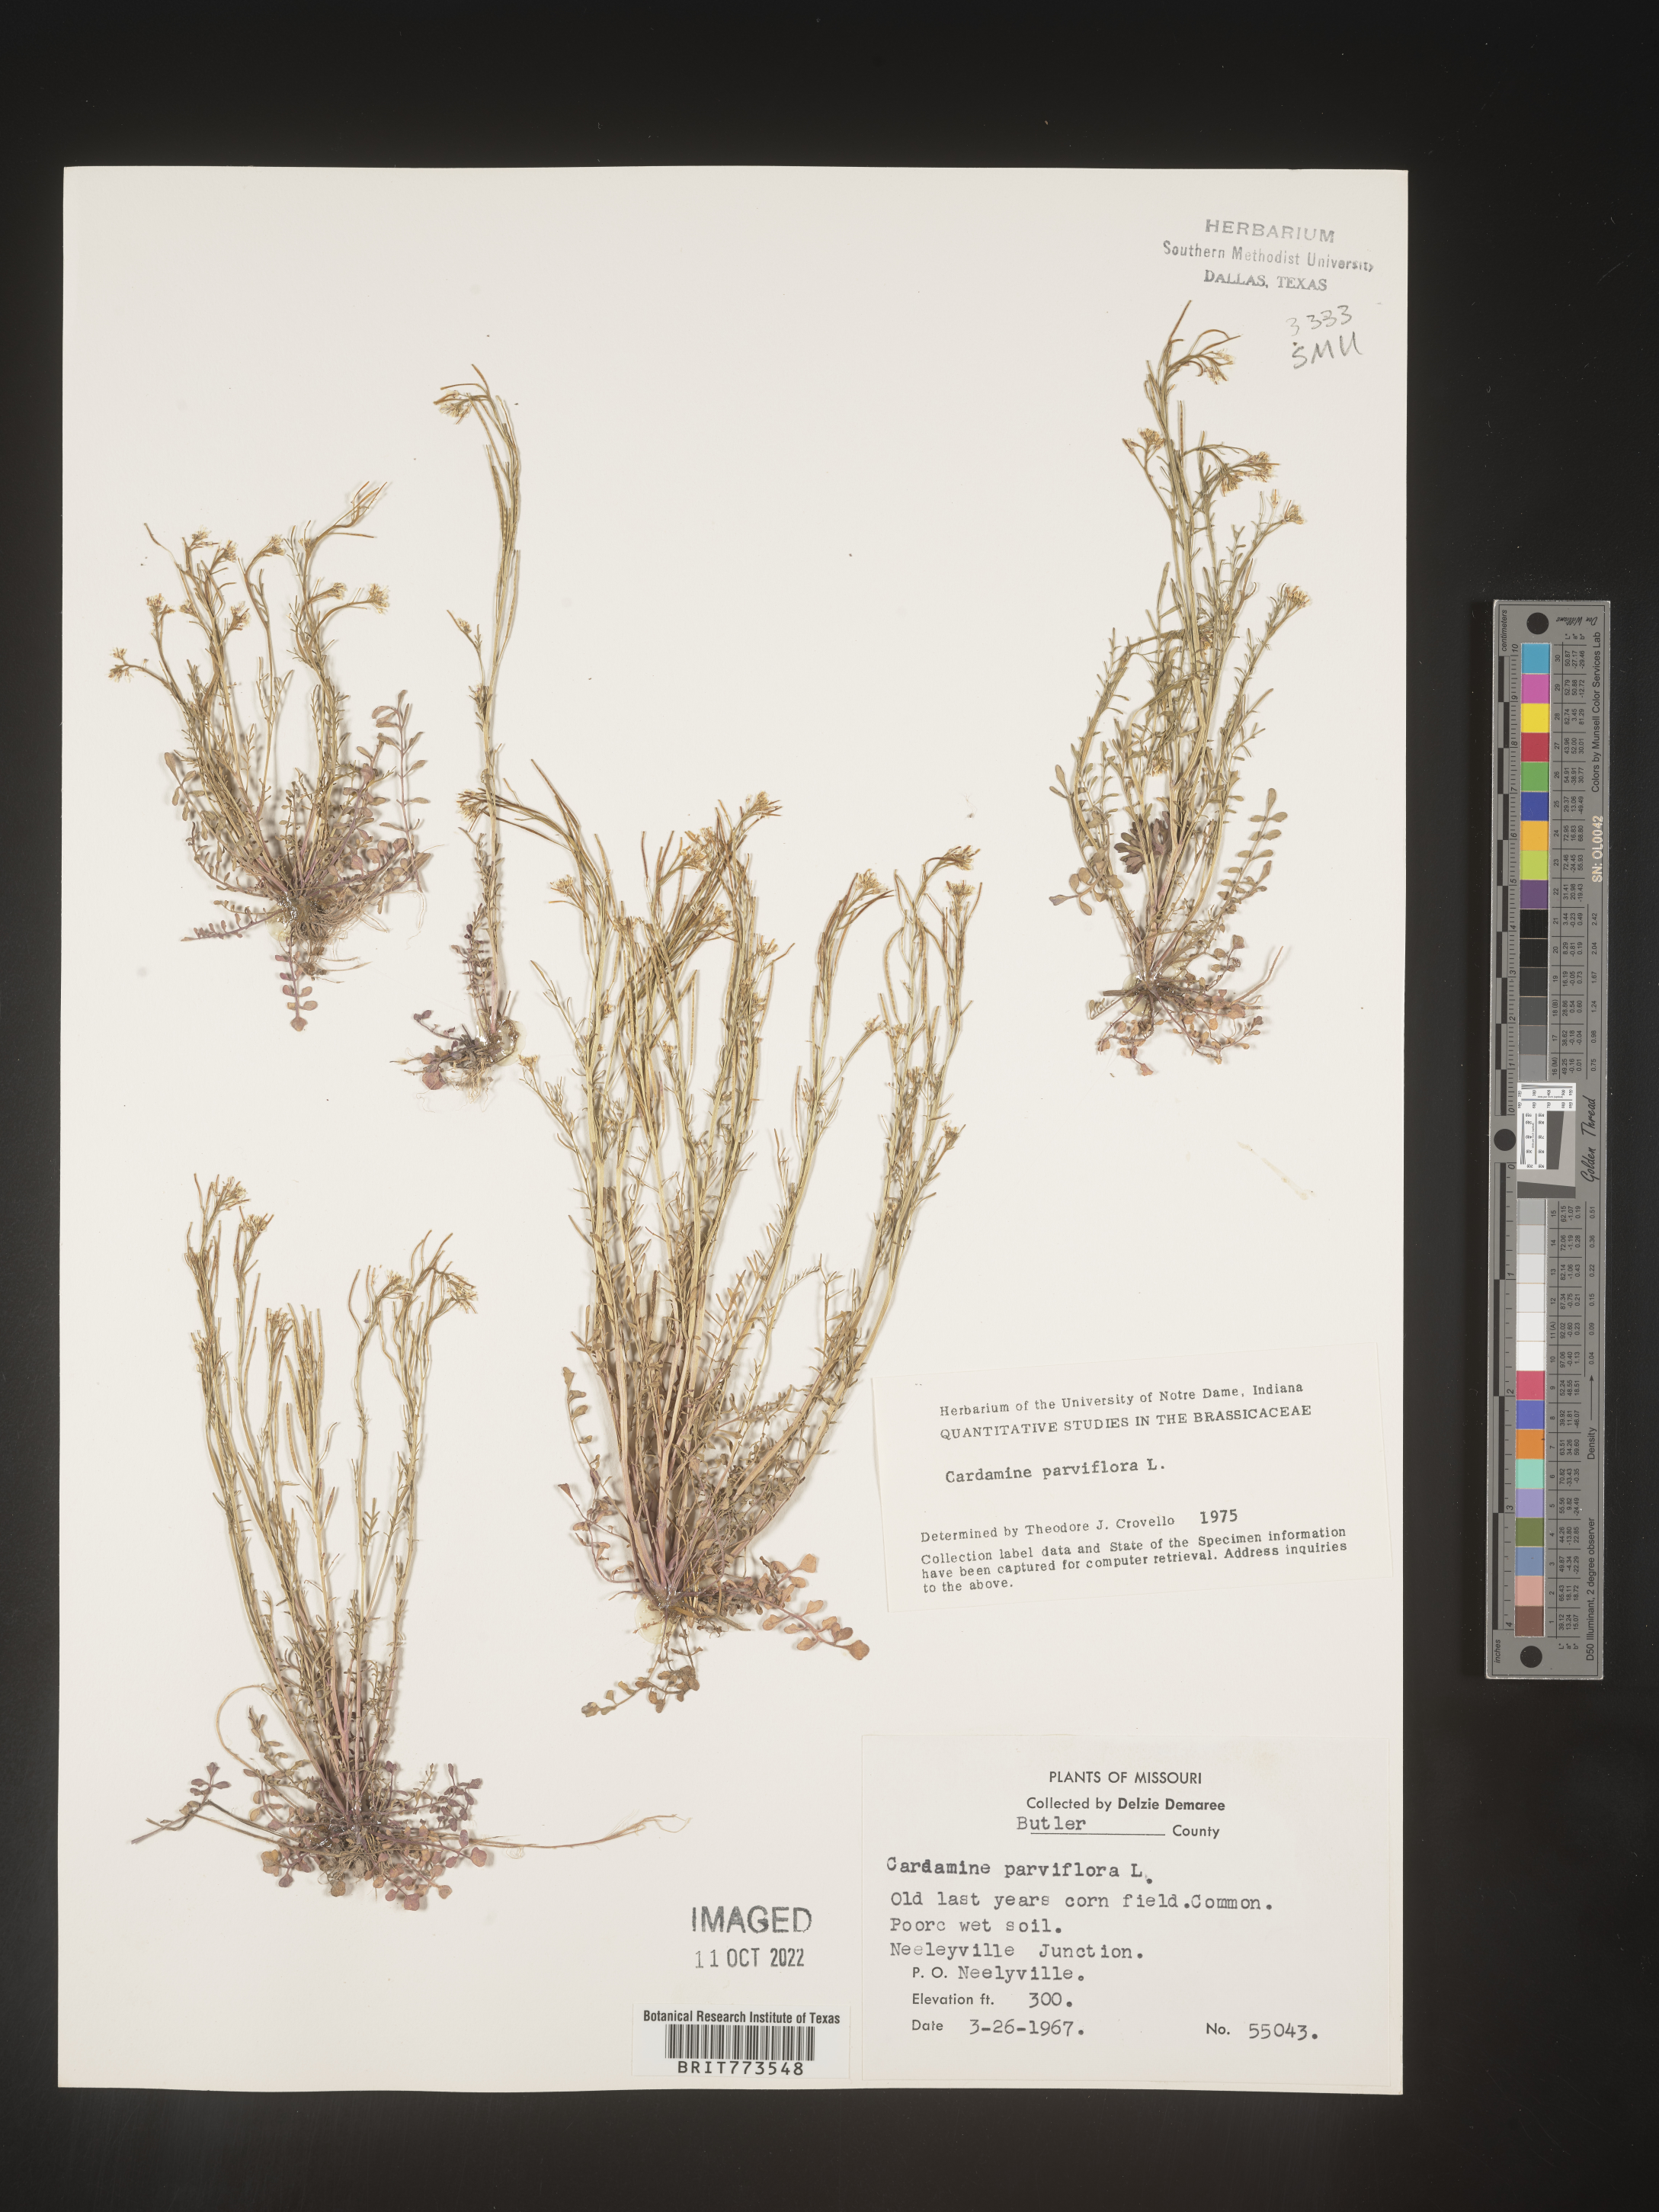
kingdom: Plantae
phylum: Tracheophyta
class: Magnoliopsida
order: Brassicales
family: Brassicaceae
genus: Cardamine
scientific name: Cardamine parviflora
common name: Sand bittercress
